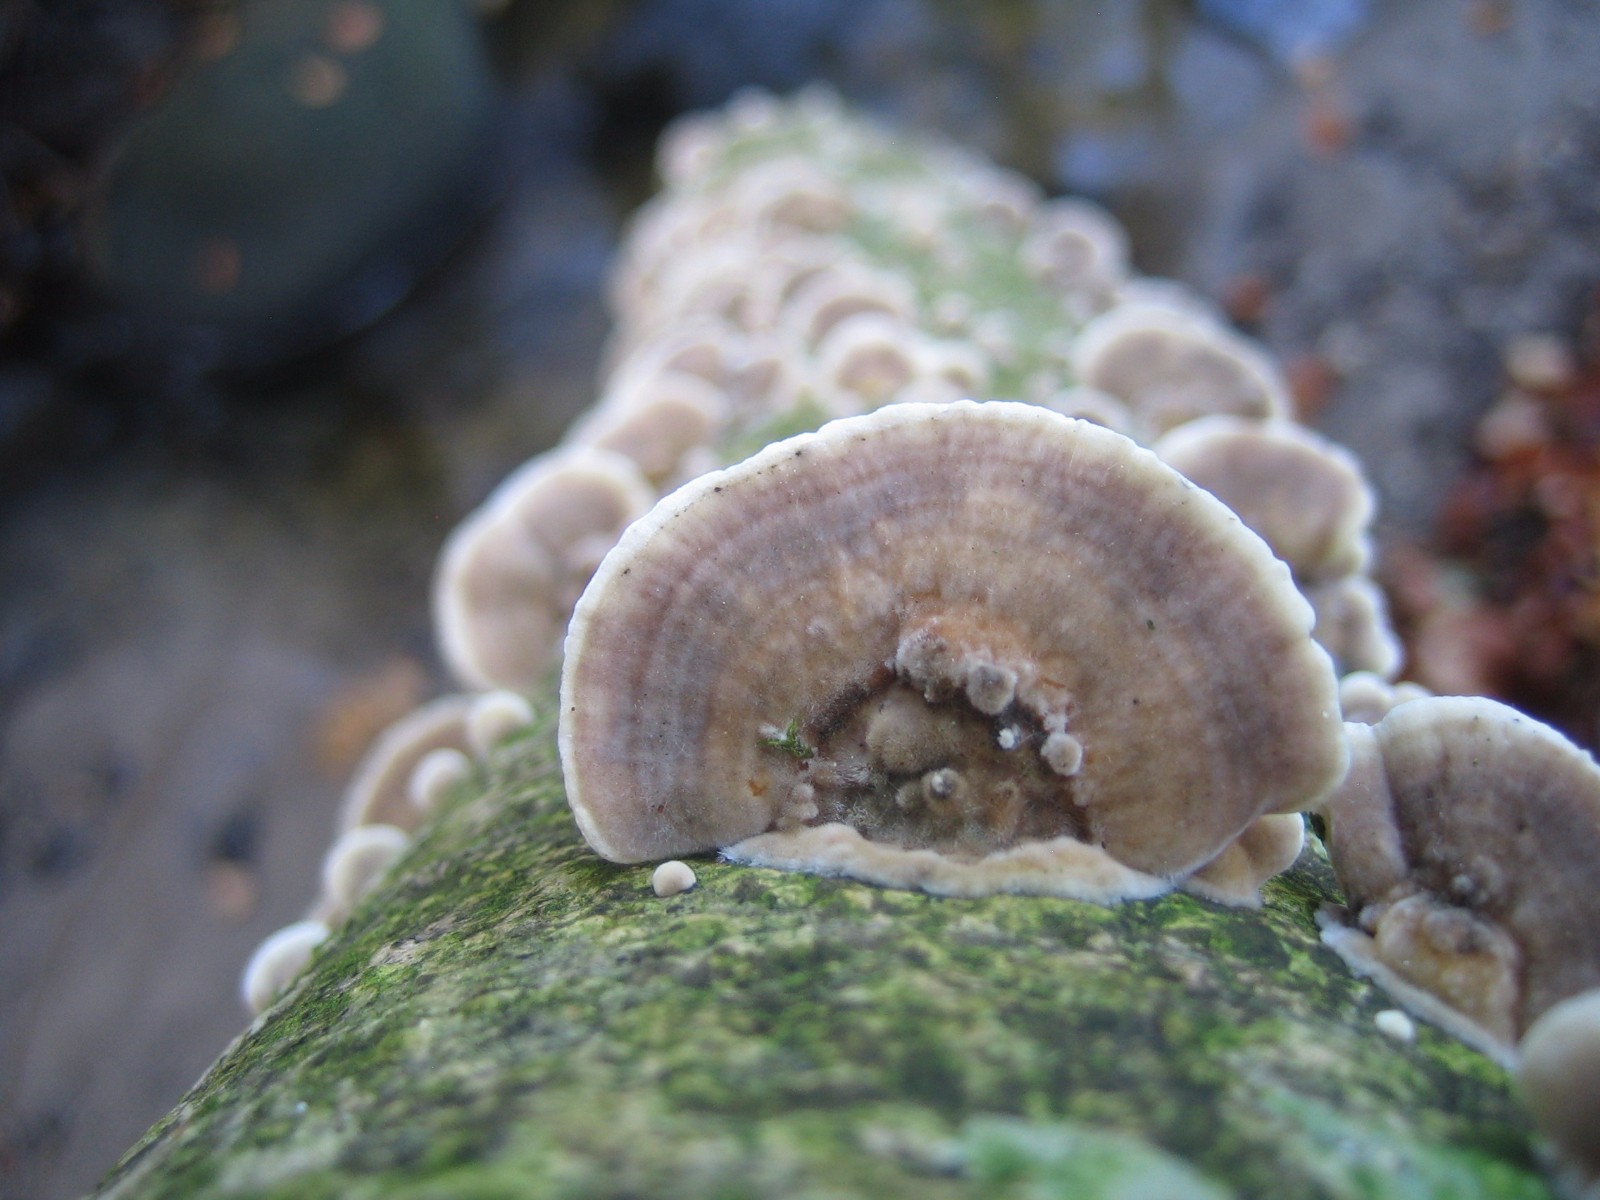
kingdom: Fungi
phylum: Basidiomycota
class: Agaricomycetes
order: Polyporales
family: Polyporaceae
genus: Trametes
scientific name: Trametes versicolor
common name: broget læderporesvamp
